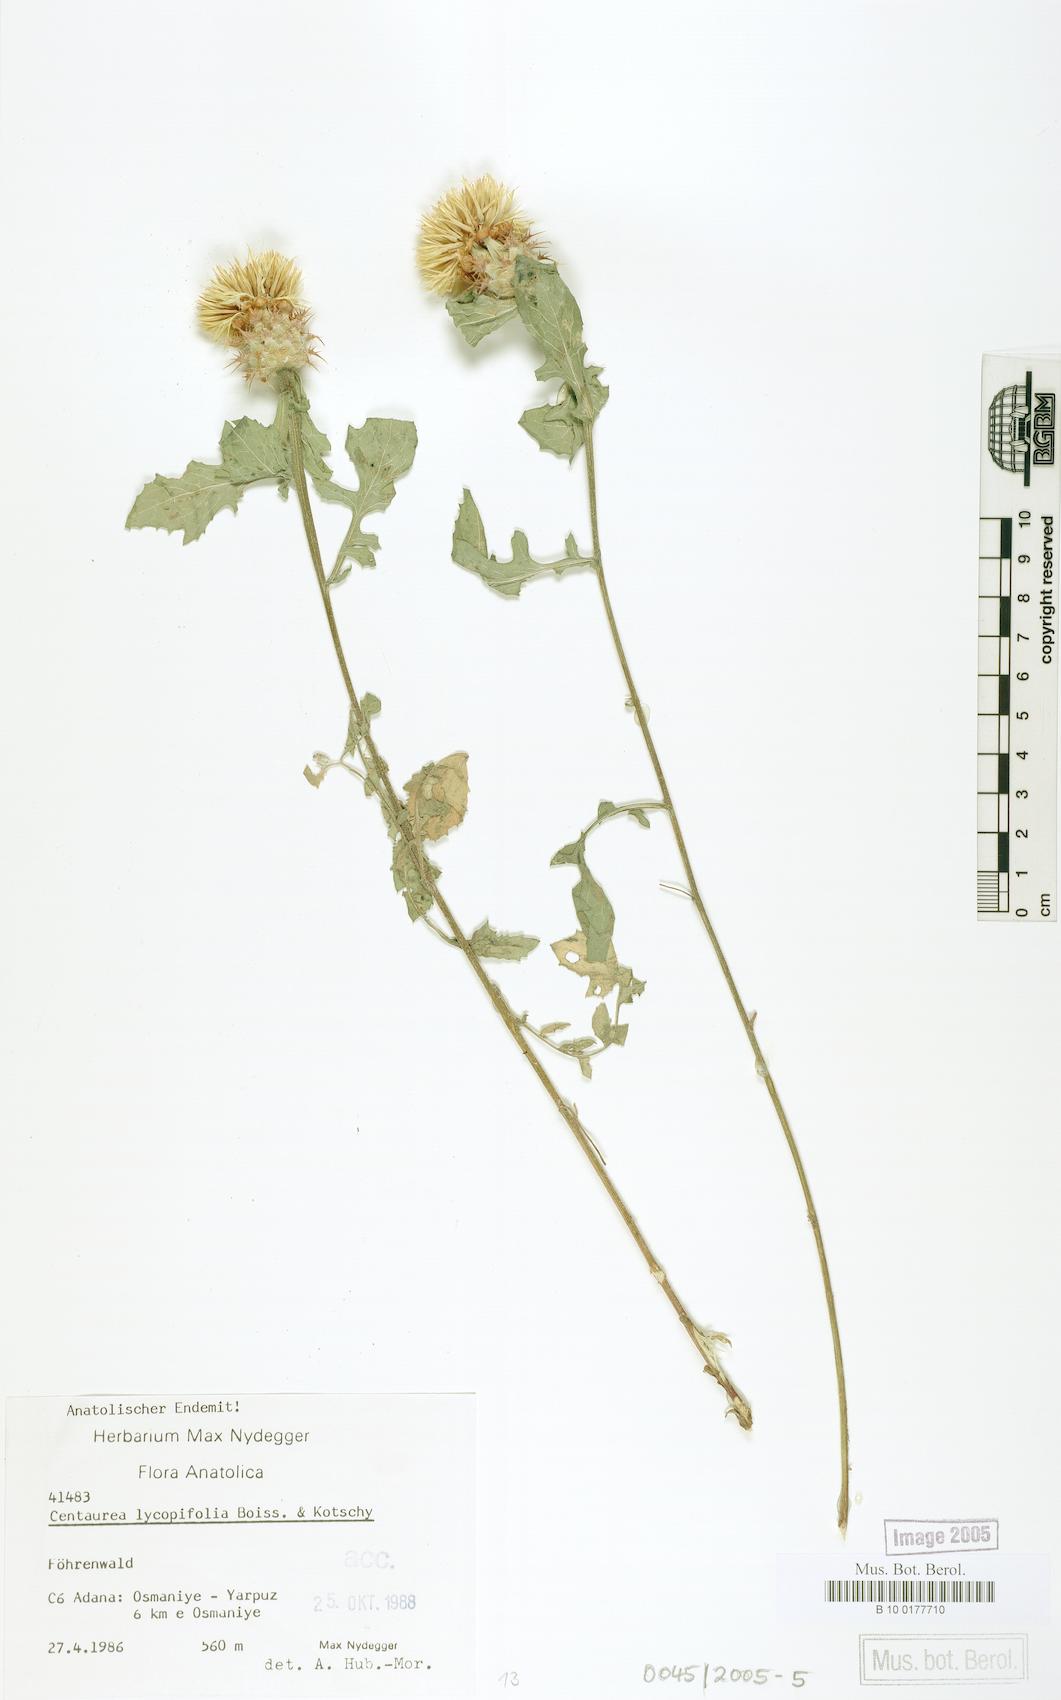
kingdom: Plantae
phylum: Tracheophyta
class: Magnoliopsida
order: Asterales
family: Asteraceae
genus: Centaurea
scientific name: Centaurea lycopifolia
